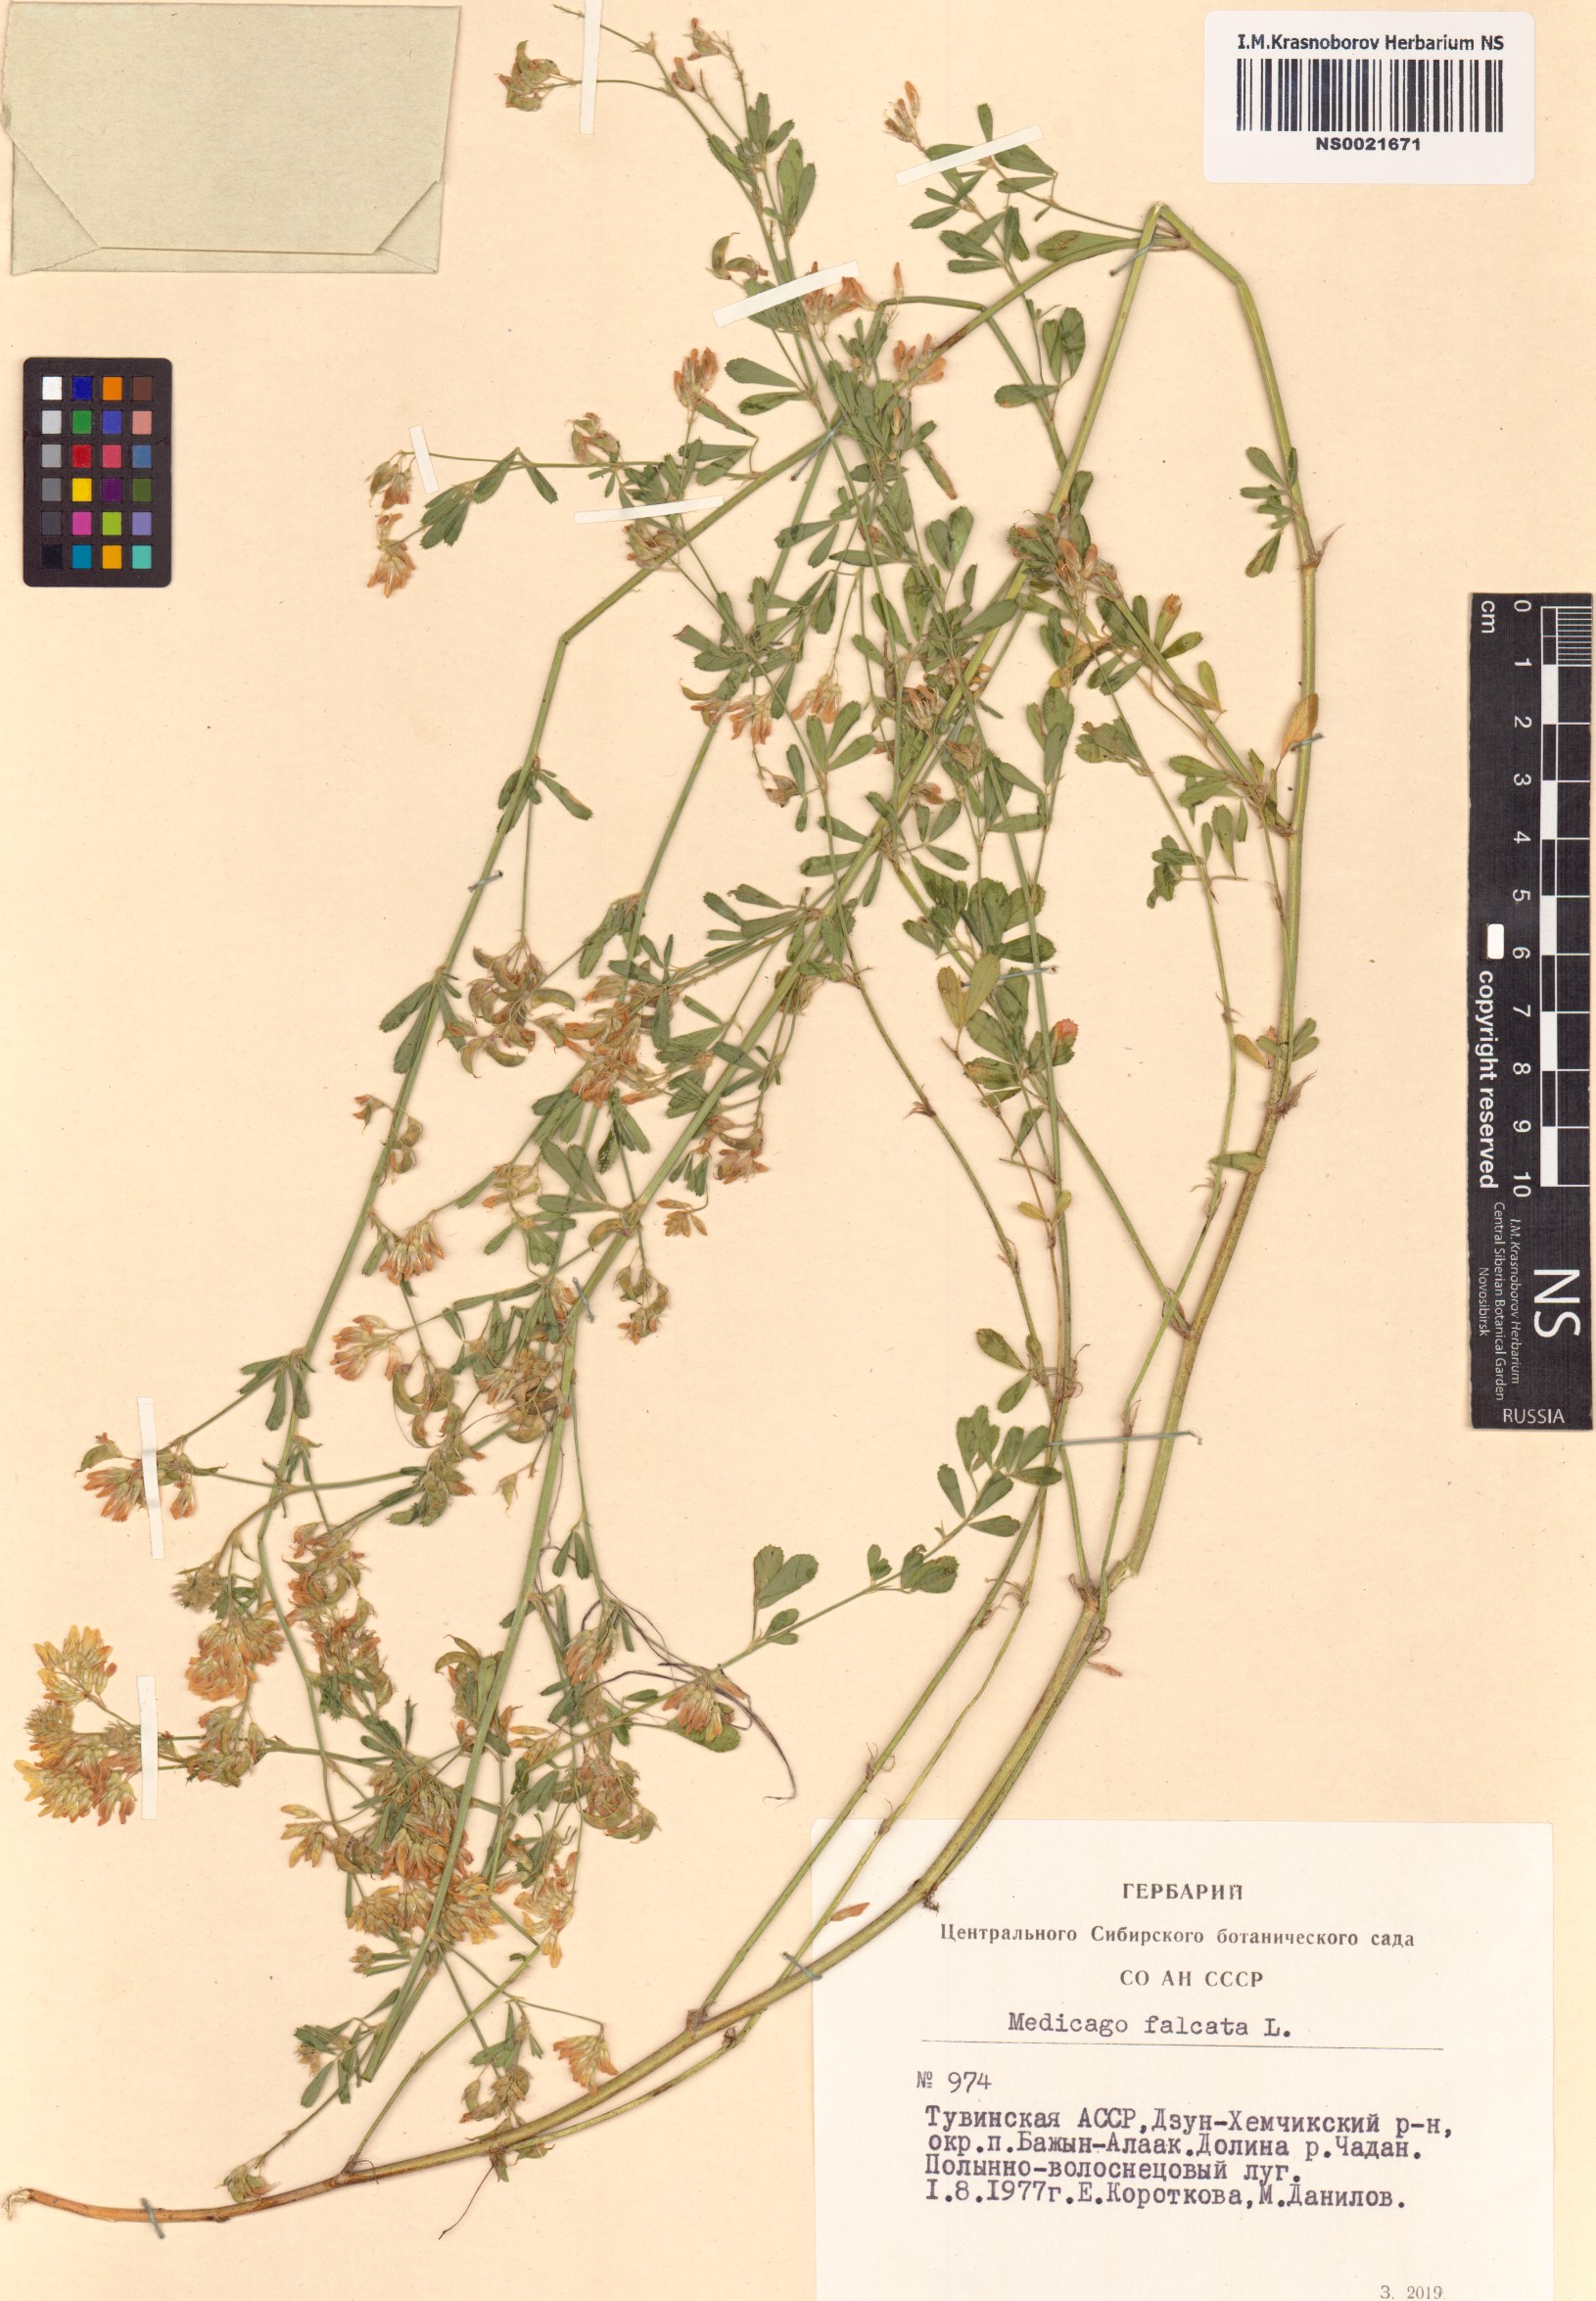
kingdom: Plantae
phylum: Tracheophyta
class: Magnoliopsida
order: Fabales
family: Fabaceae
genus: Medicago
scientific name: Medicago falcata
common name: Sickle medick
